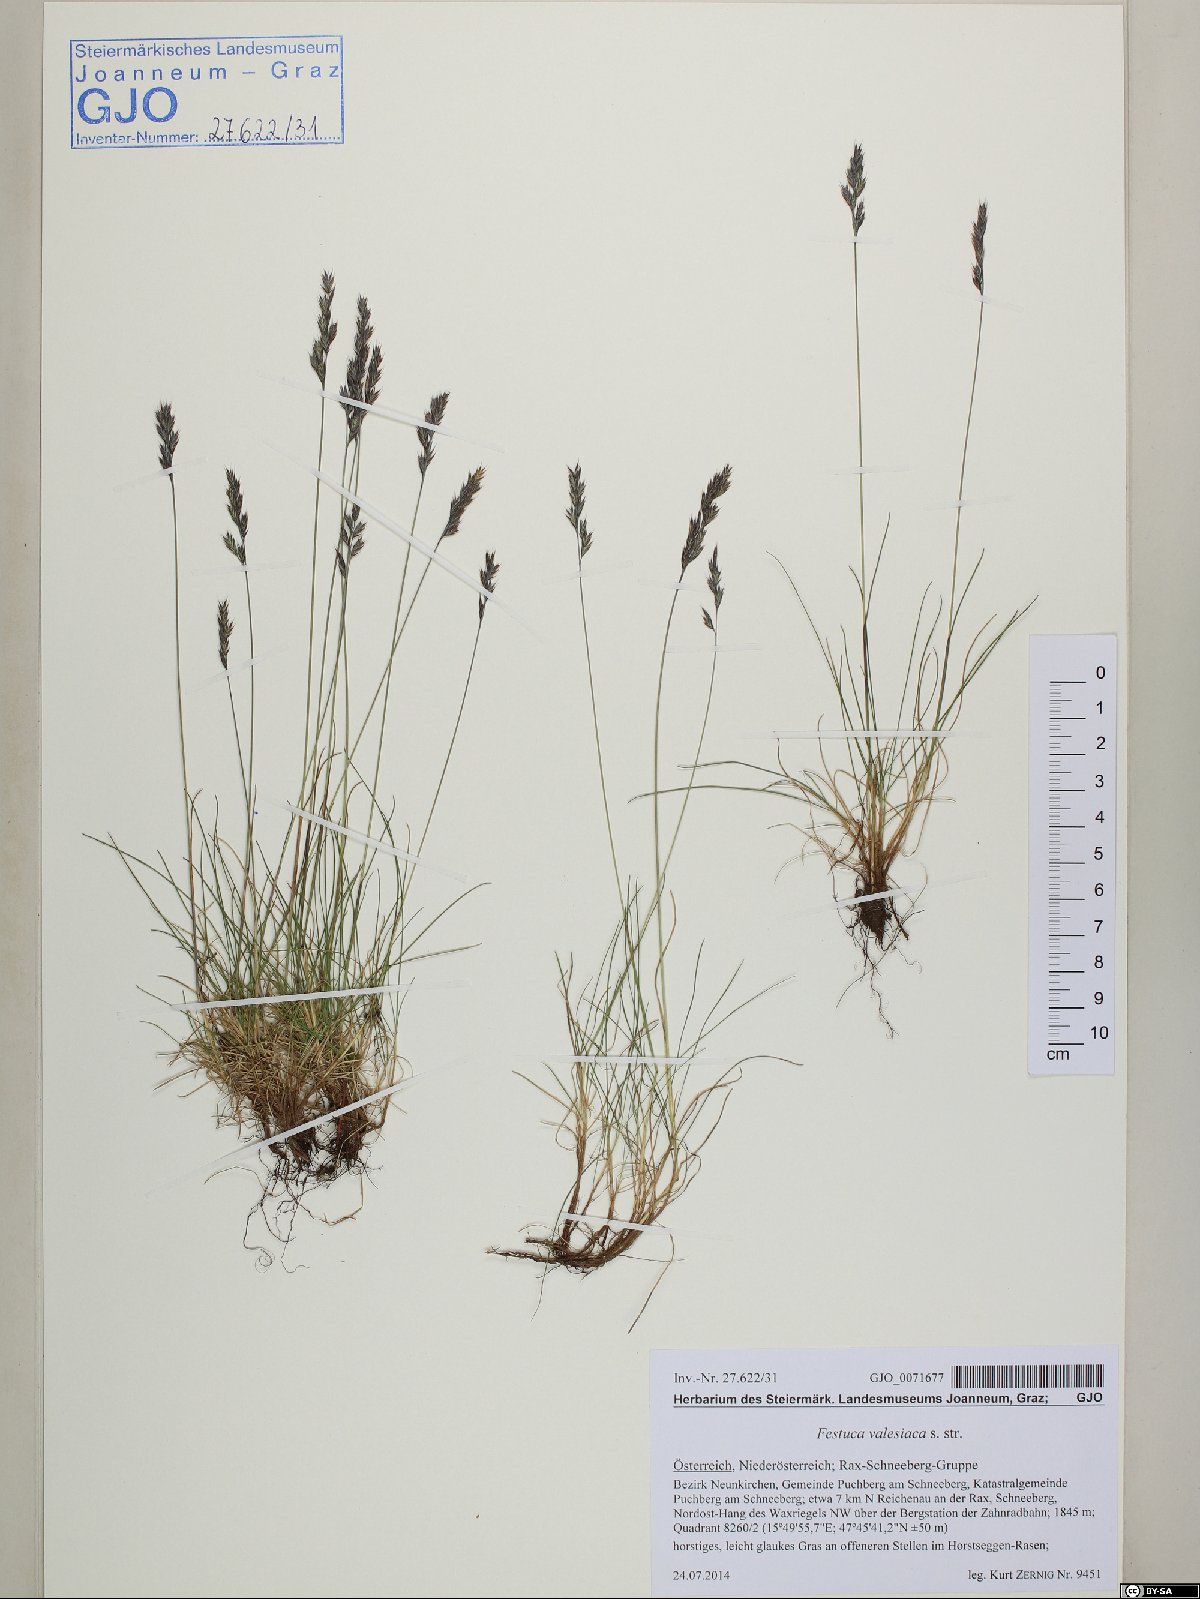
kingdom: Plantae
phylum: Tracheophyta
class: Liliopsida
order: Poales
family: Poaceae
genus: Festuca
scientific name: Festuca valesiaca
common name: Volga fescue
